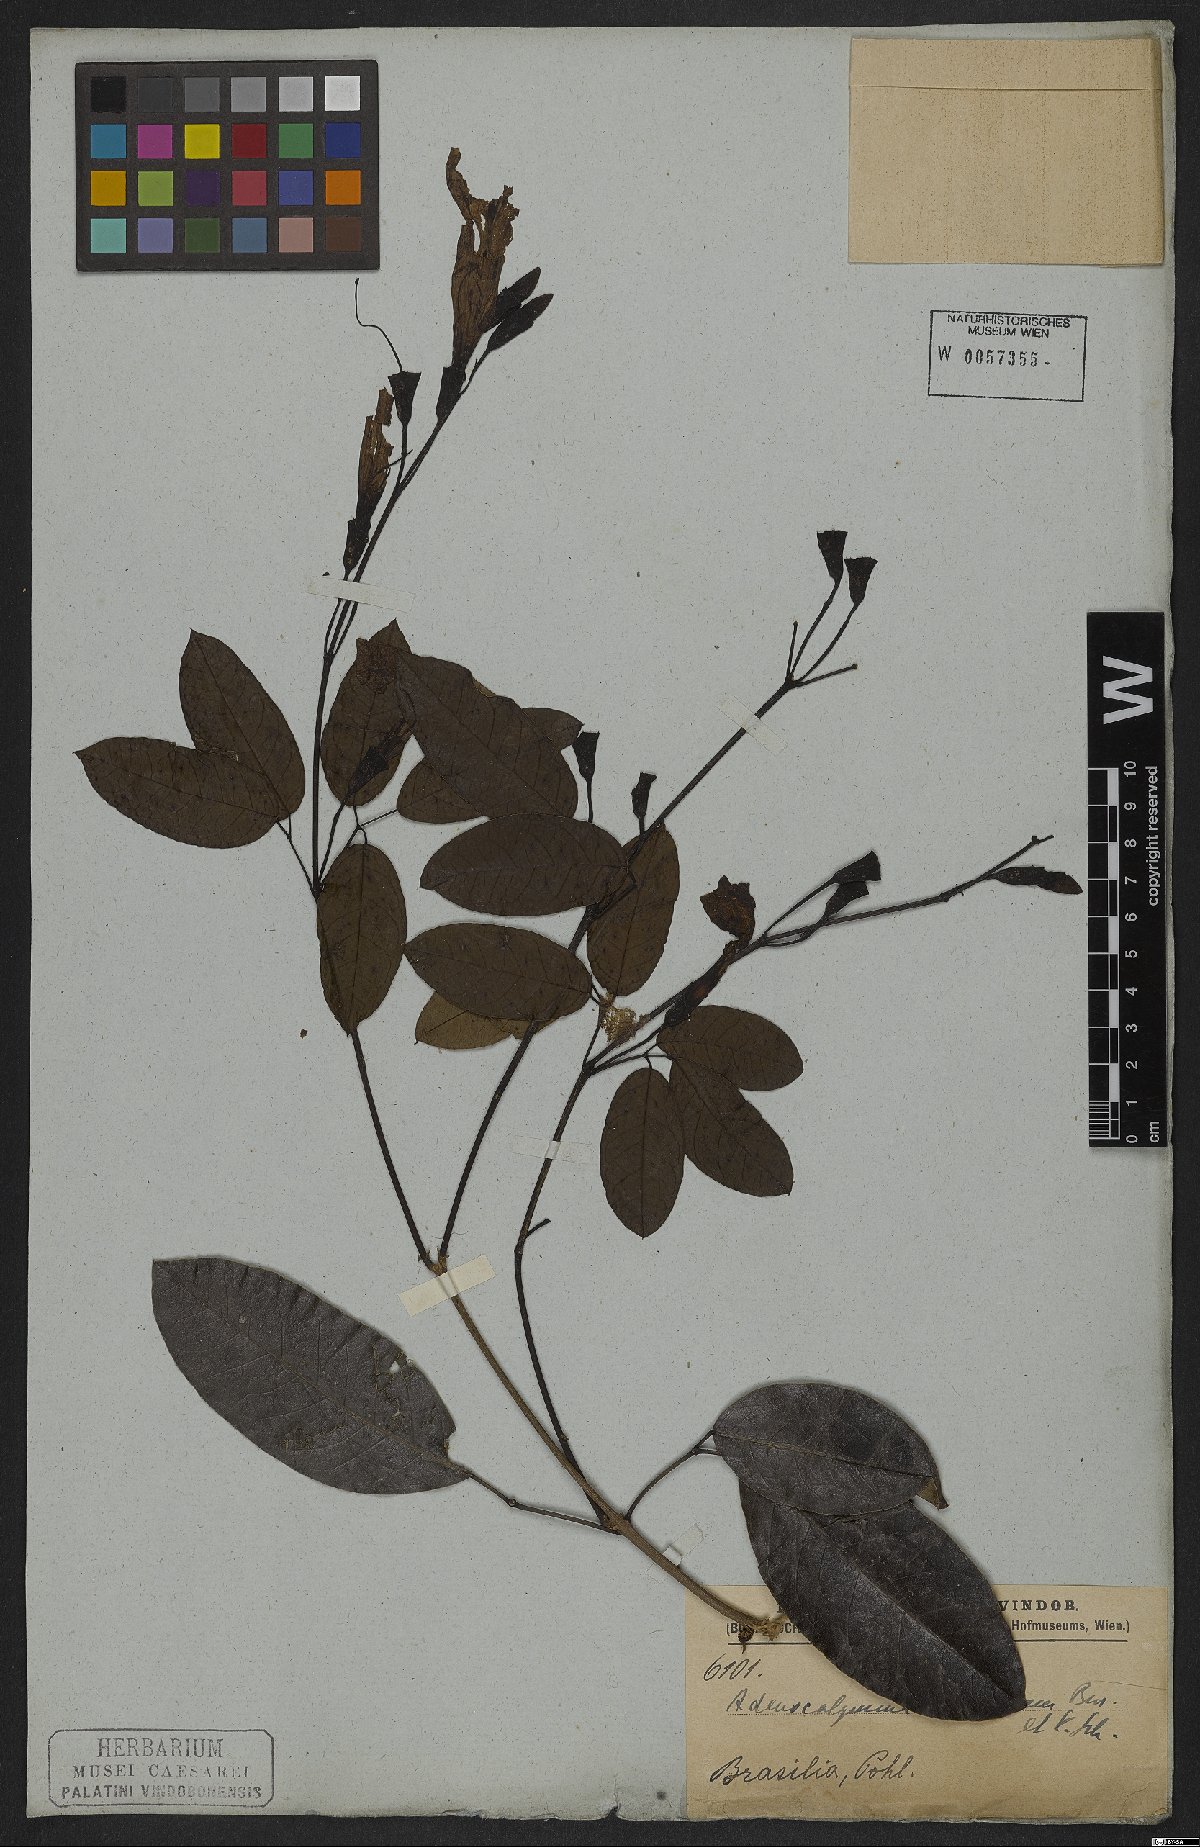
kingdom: Plantae
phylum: Tracheophyta
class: Magnoliopsida
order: Lamiales
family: Bignoniaceae
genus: Adenocalymma
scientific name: Adenocalymma cymbalum
